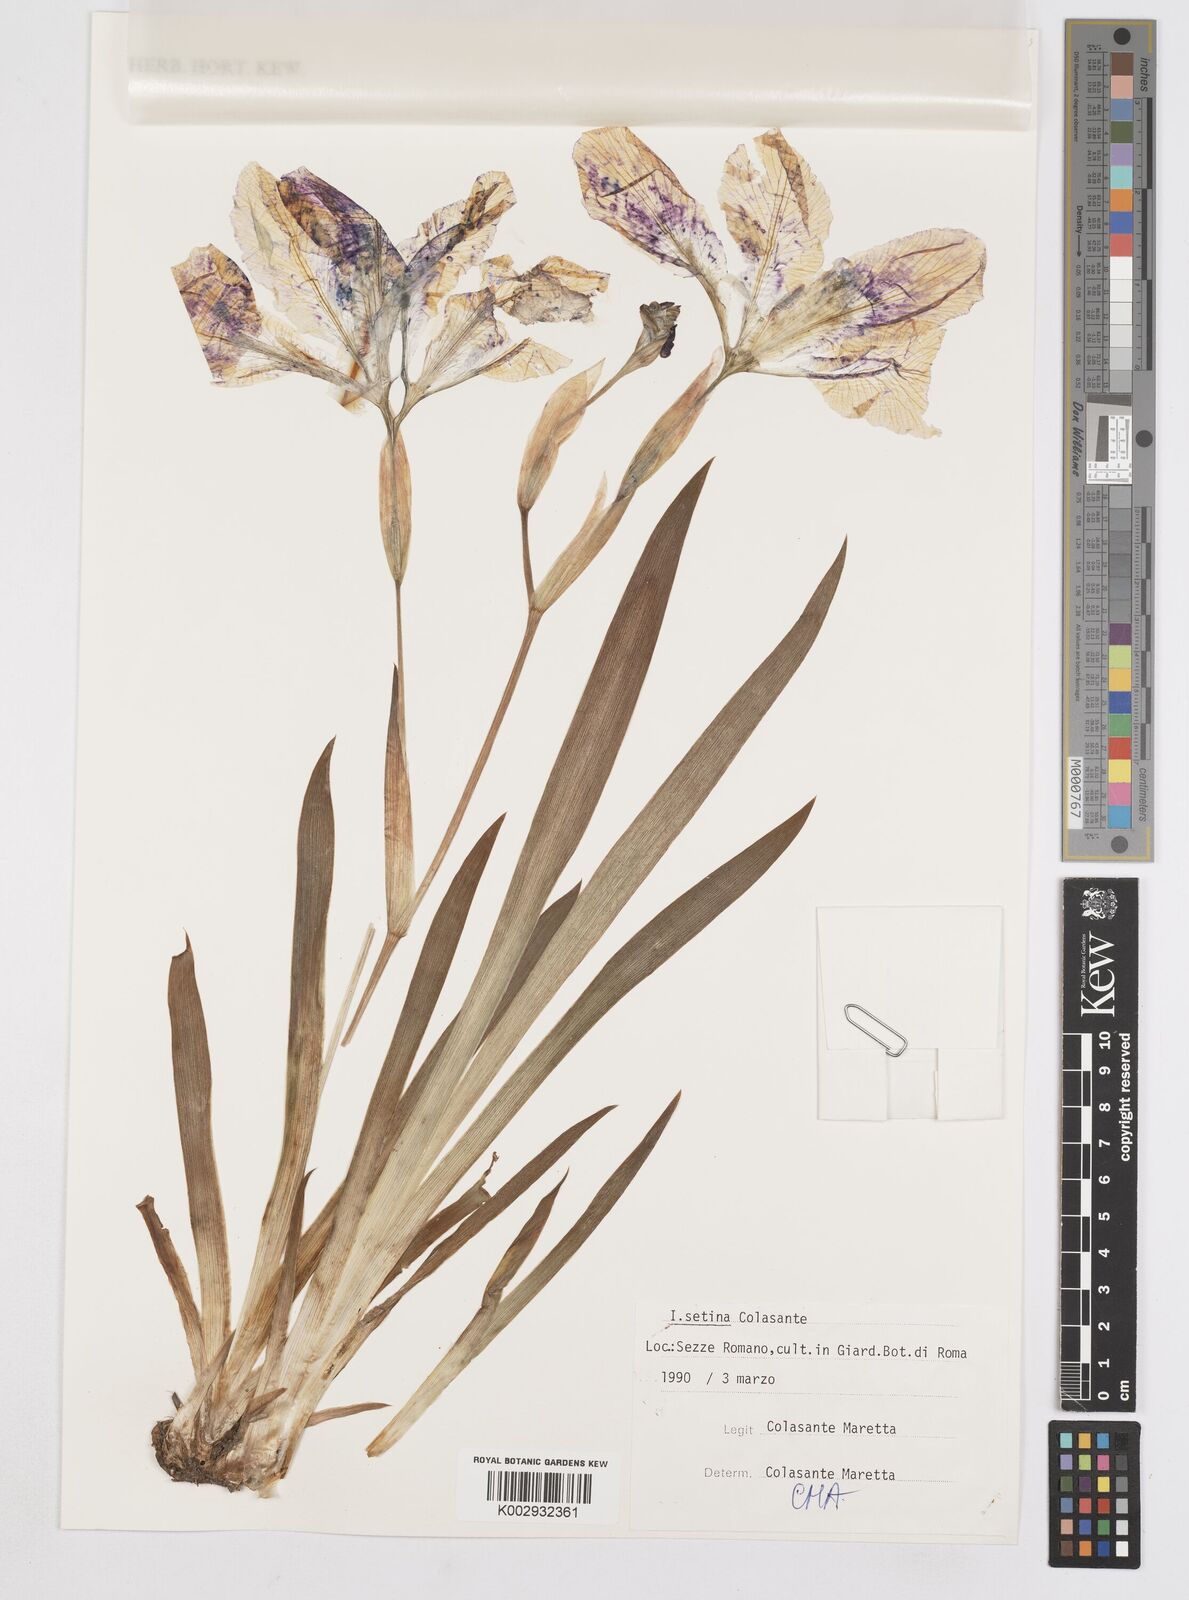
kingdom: Plantae
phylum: Tracheophyta
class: Liliopsida
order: Asparagales
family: Iridaceae
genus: Iris
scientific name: Iris setina
